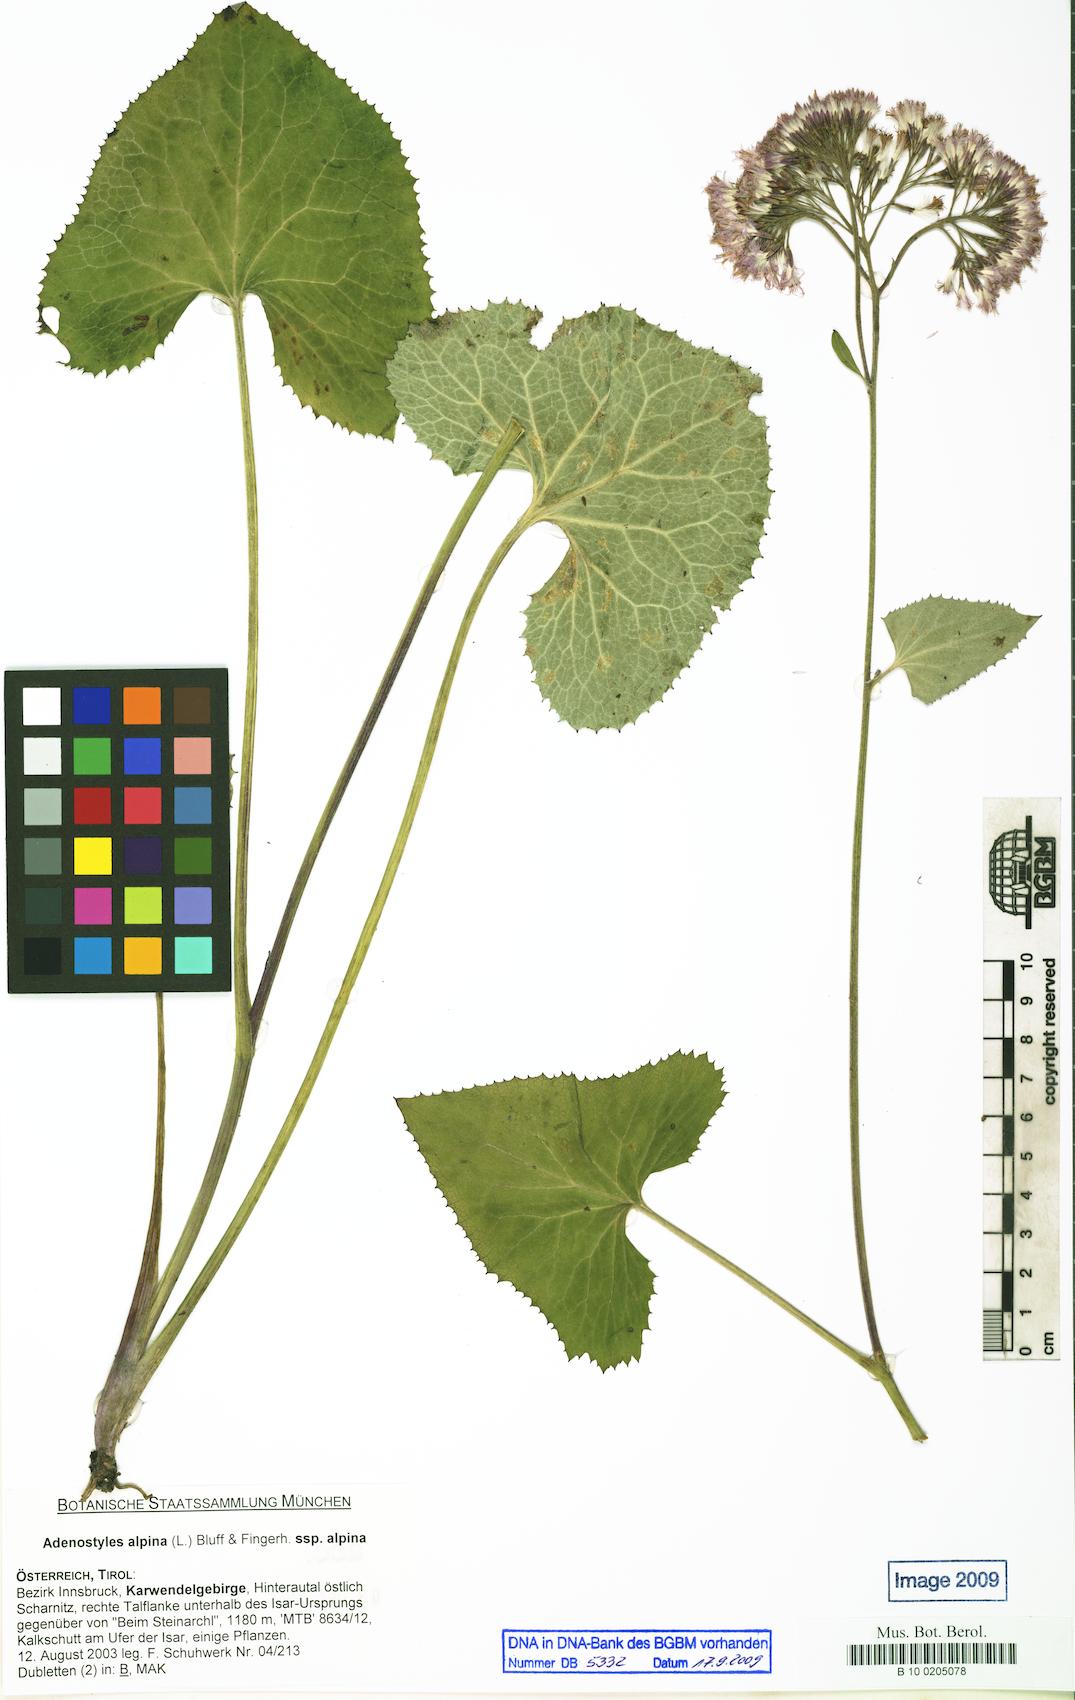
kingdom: Plantae
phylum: Tracheophyta
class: Magnoliopsida
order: Asterales
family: Asteraceae
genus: Adenostyles
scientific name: Adenostyles alpina
